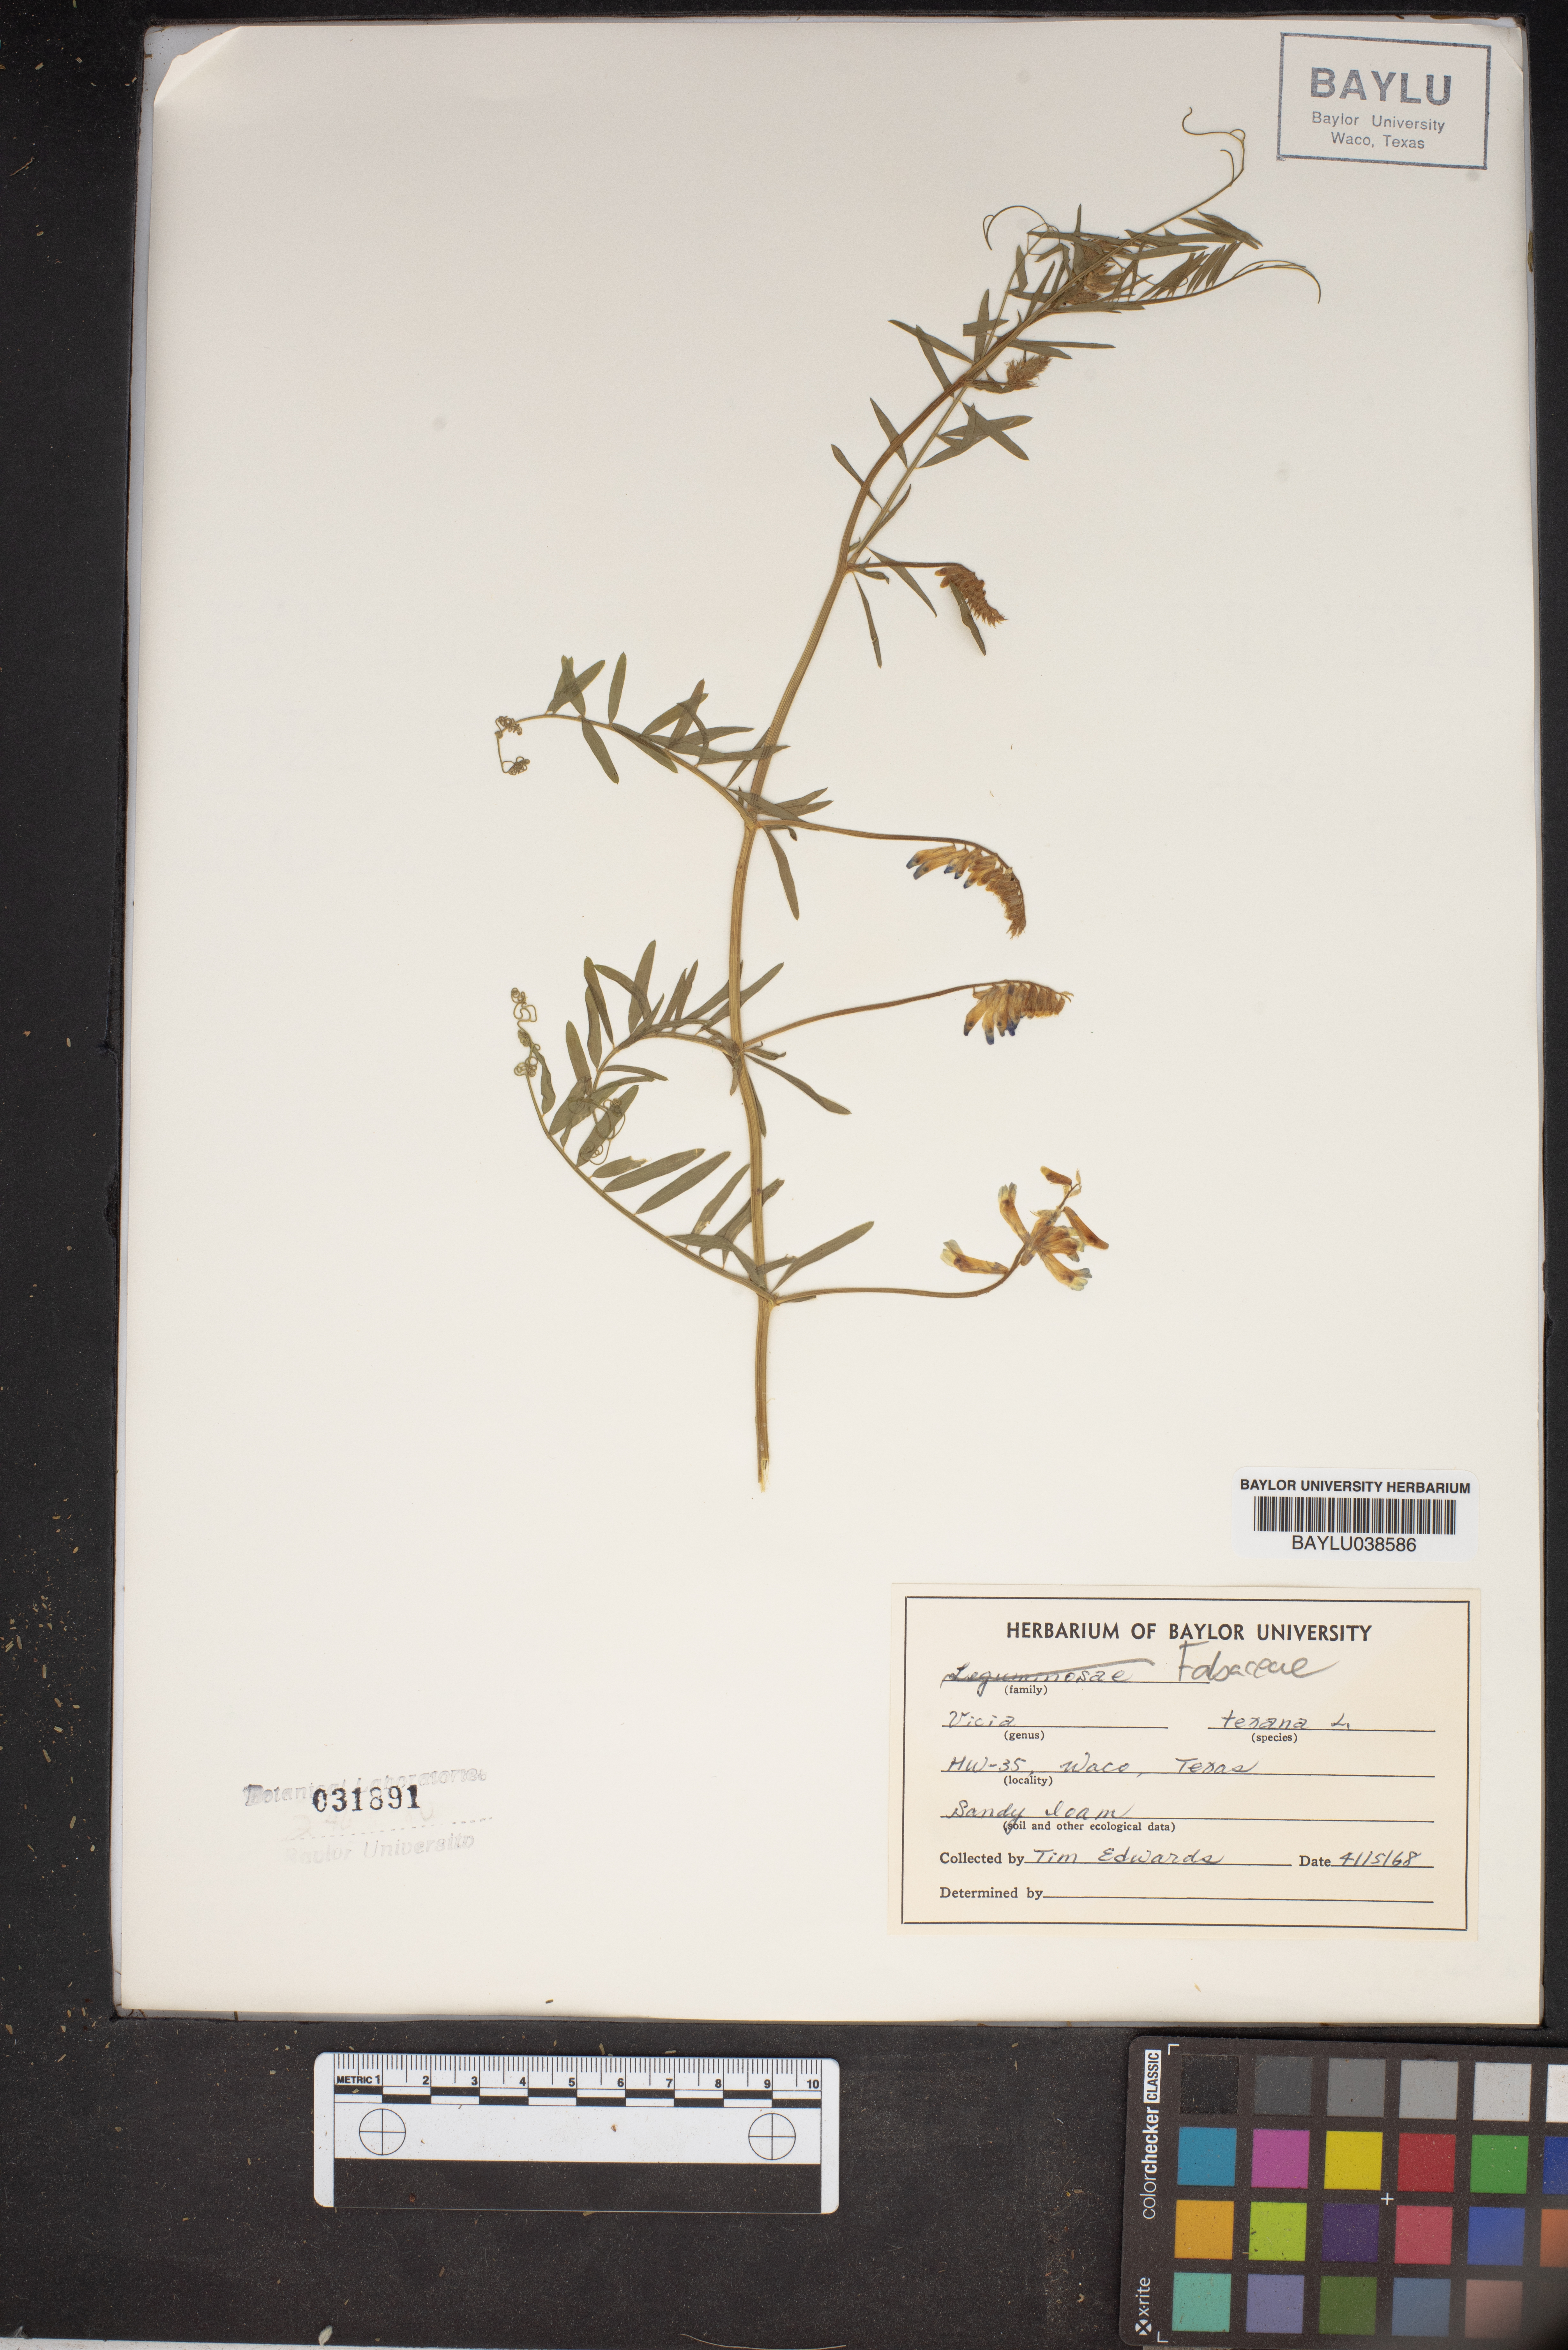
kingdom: Plantae
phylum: Tracheophyta
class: Magnoliopsida
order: Fabales
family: Fabaceae
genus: Vicia
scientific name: Vicia ludoviciana
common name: Louisiana vetch
